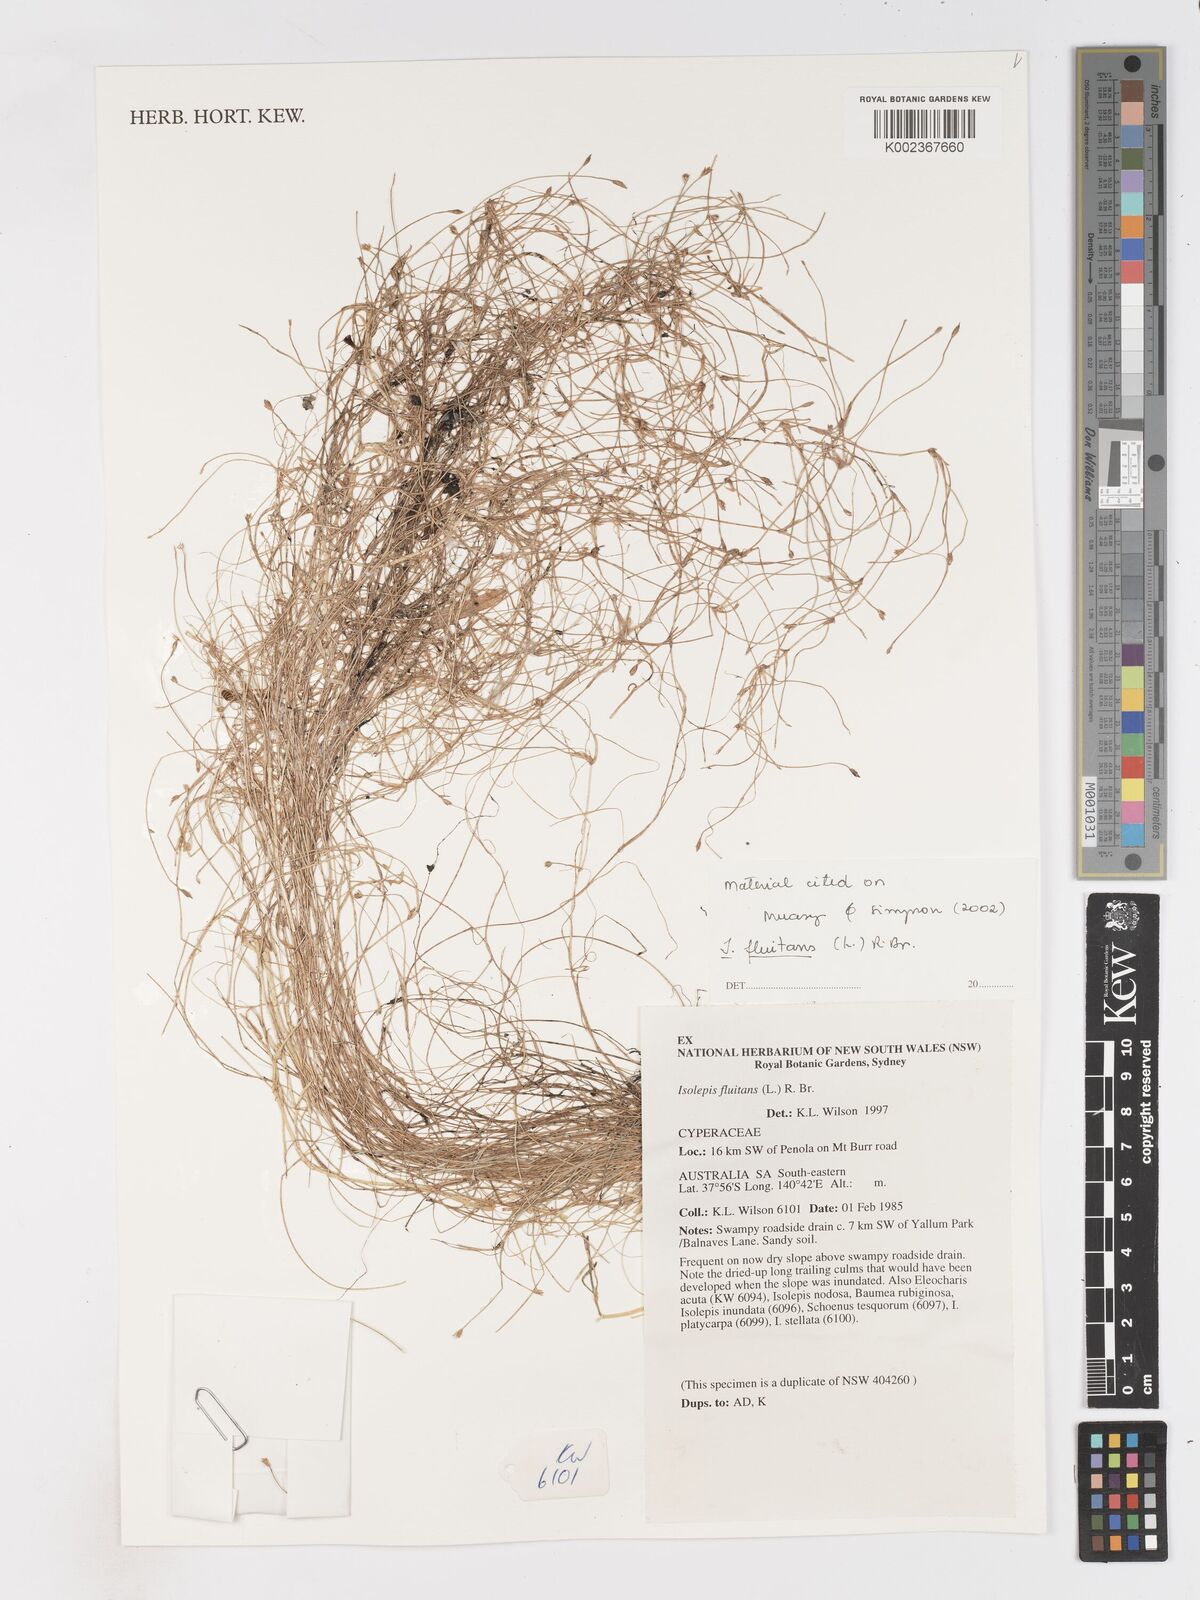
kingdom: Plantae
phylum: Tracheophyta
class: Liliopsida
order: Poales
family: Cyperaceae
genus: Isolepis
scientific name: Isolepis fluitans
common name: Floating club-rush
